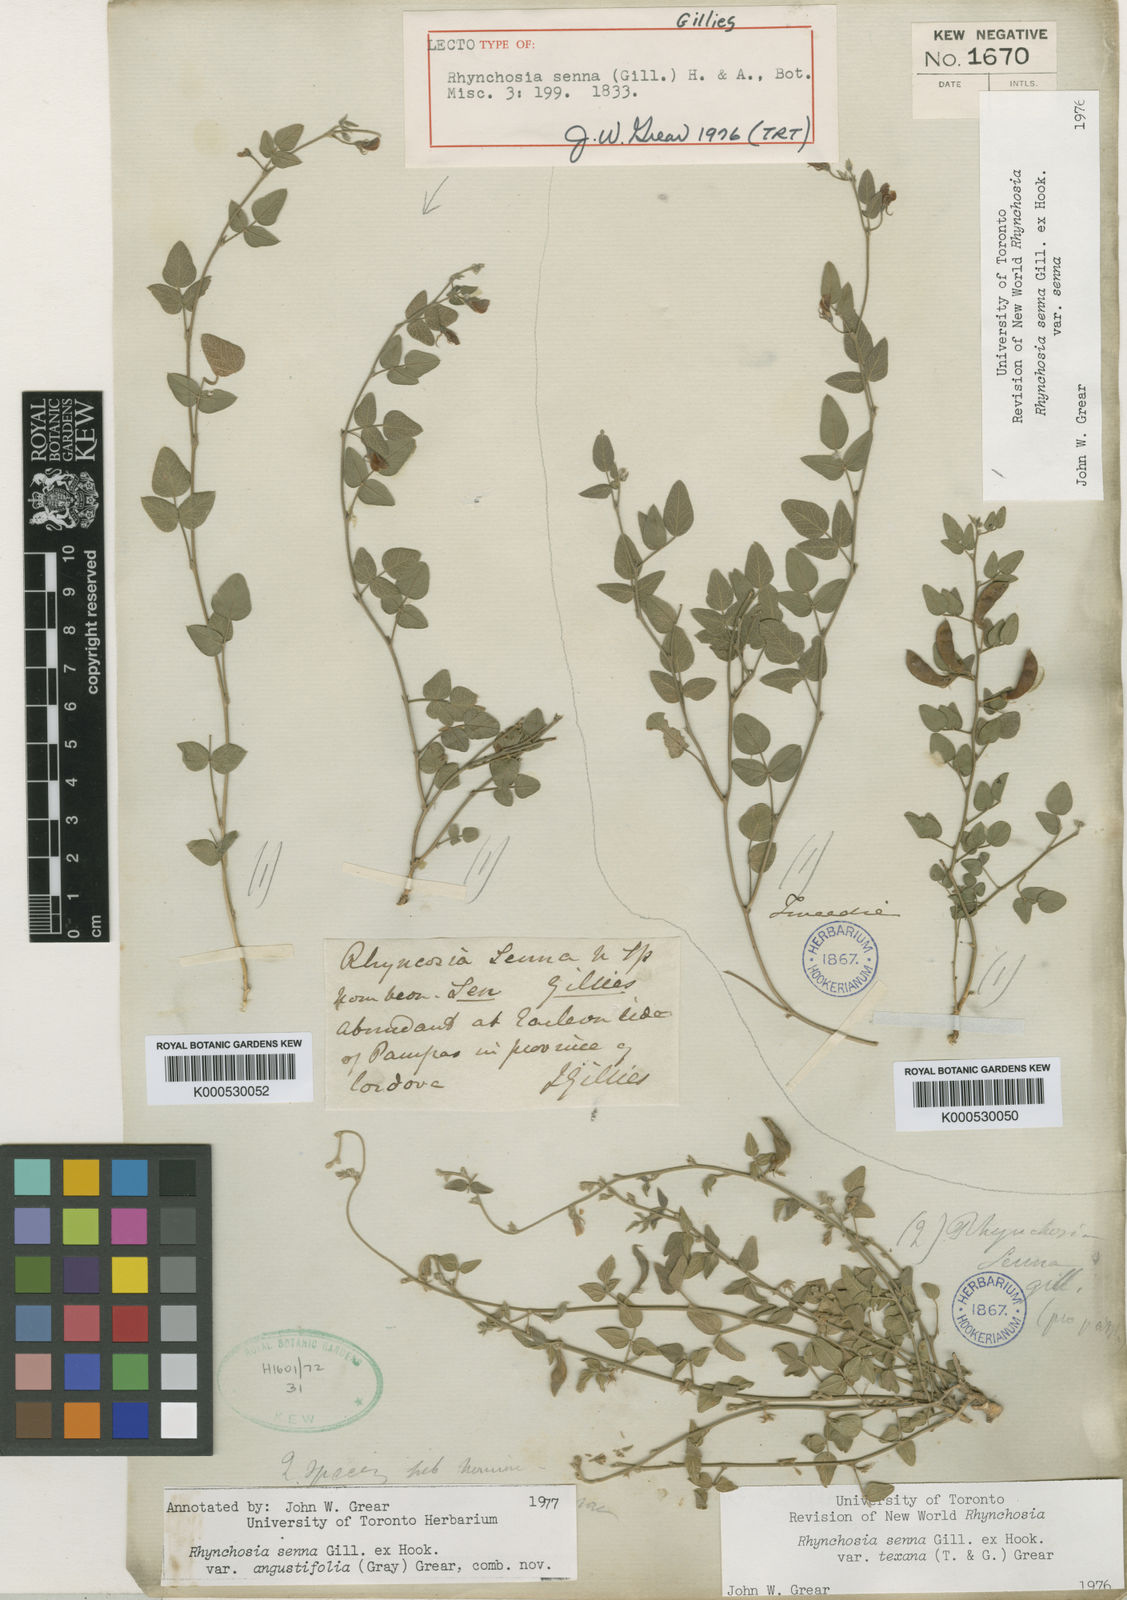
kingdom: Plantae
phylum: Tracheophyta
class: Magnoliopsida
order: Fabales
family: Fabaceae
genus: Rhynchosia
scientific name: Rhynchosia senna
